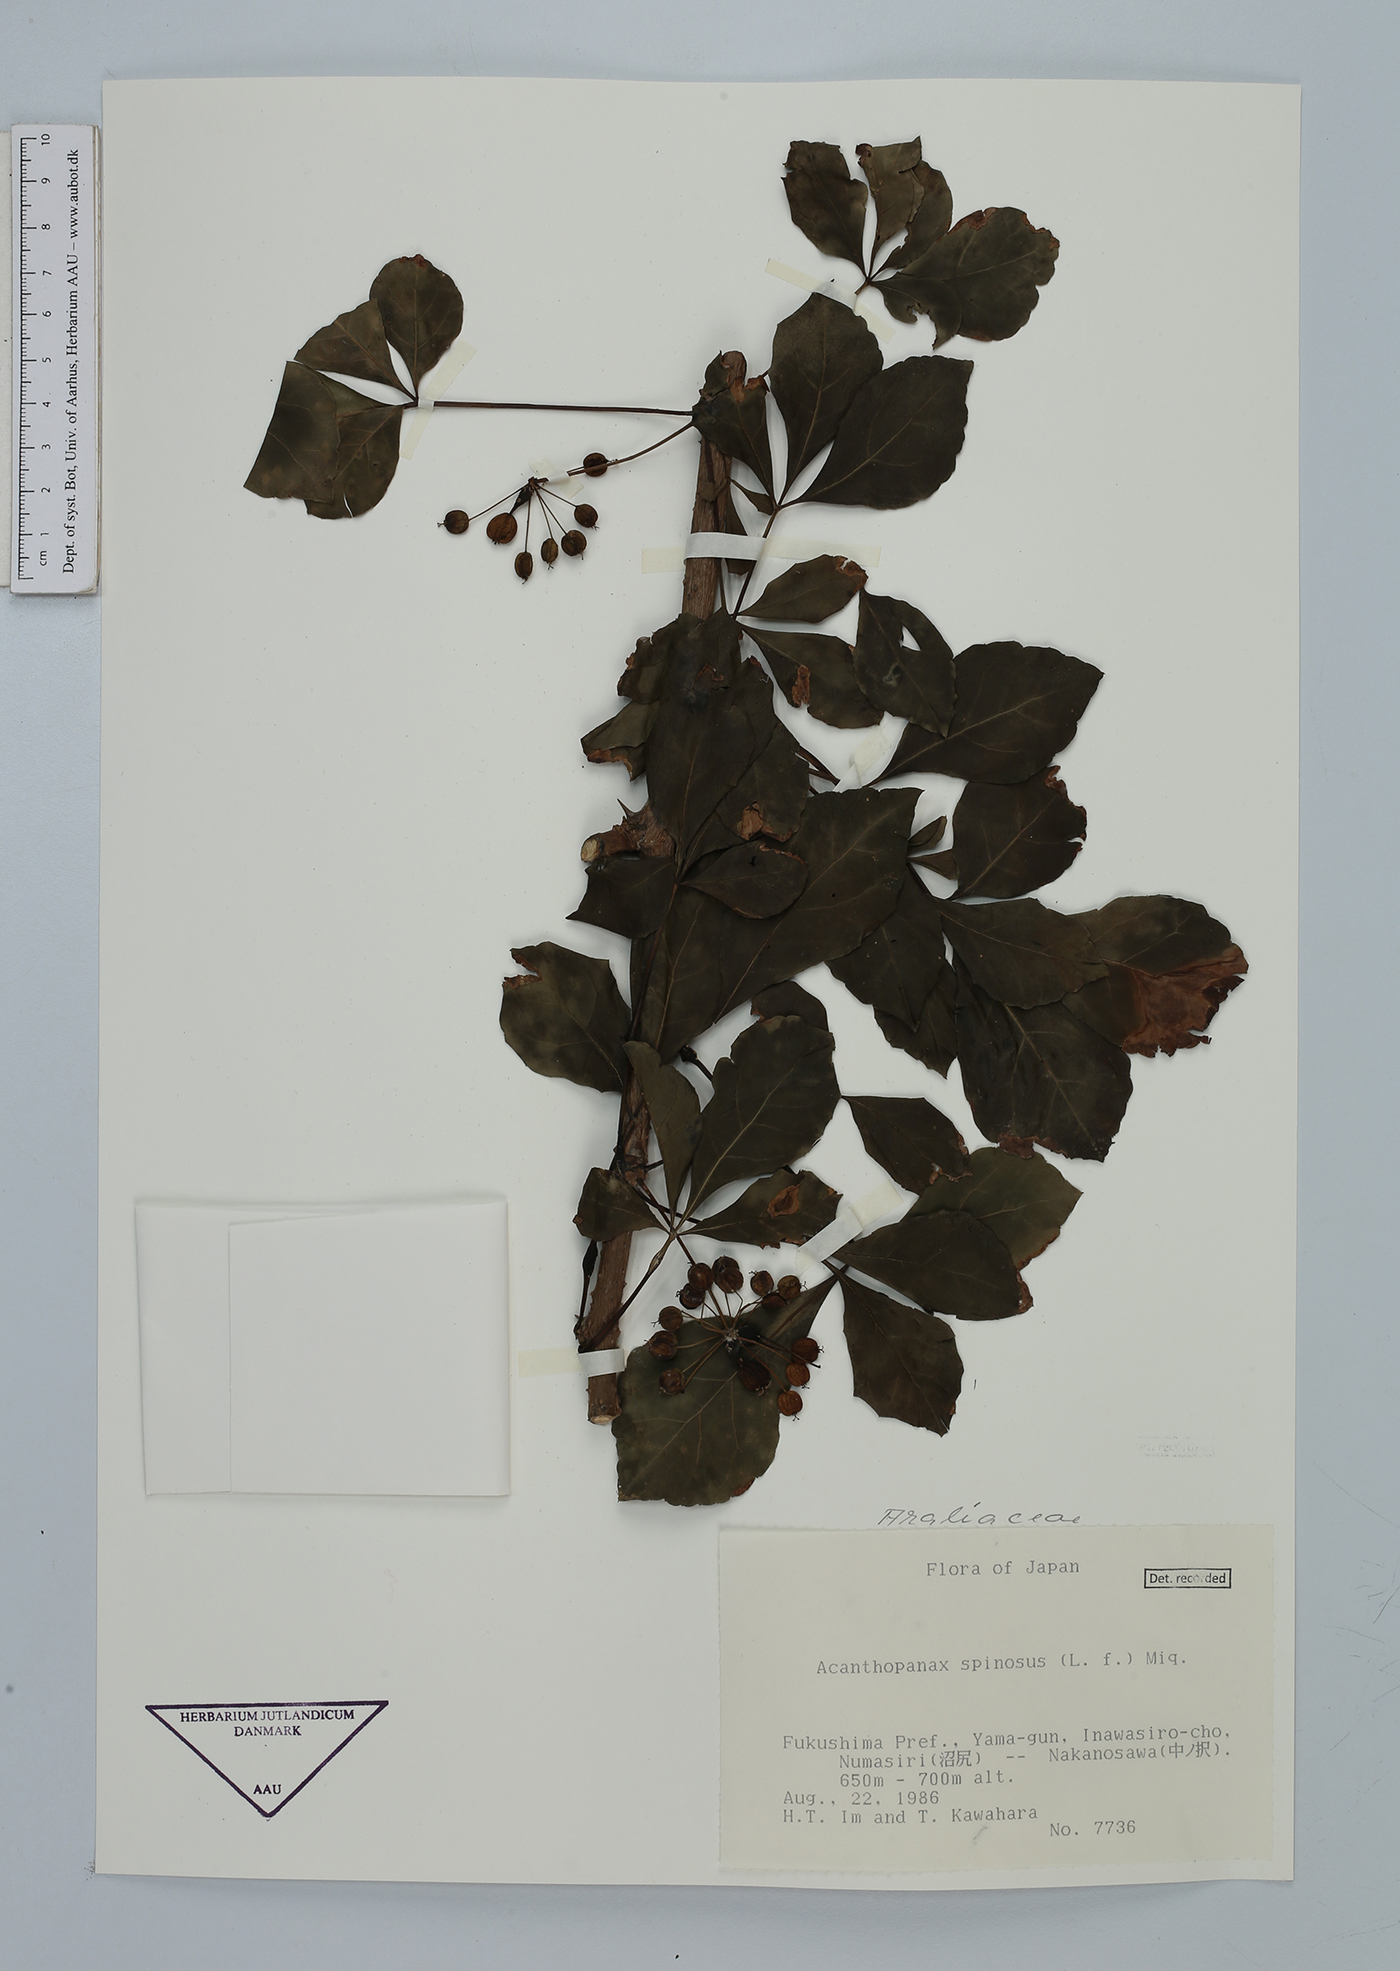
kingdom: Plantae
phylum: Tracheophyta
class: Magnoliopsida
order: Apiales
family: Araliaceae
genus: Eleutherococcus
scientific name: Eleutherococcus spinosus
